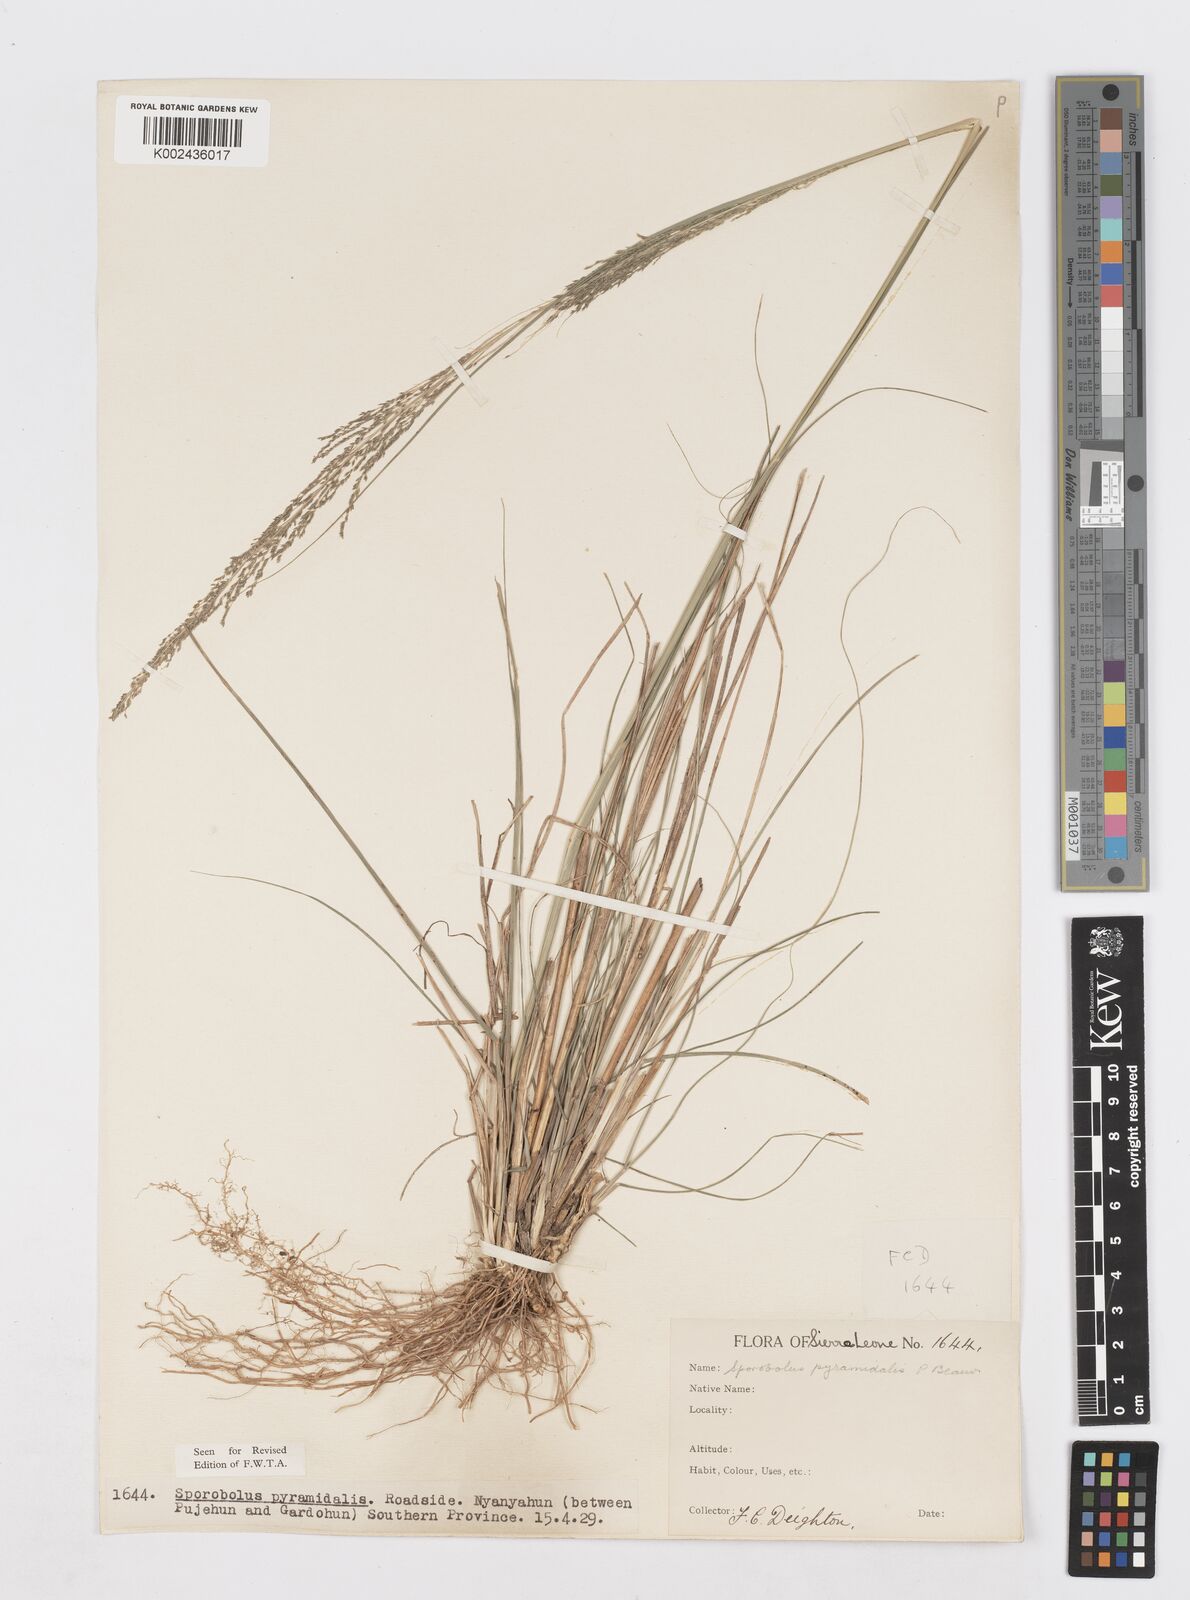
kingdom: Plantae
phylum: Tracheophyta
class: Liliopsida
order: Poales
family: Poaceae
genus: Sporobolus
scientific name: Sporobolus pyramidalis
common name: West indian dropseed
